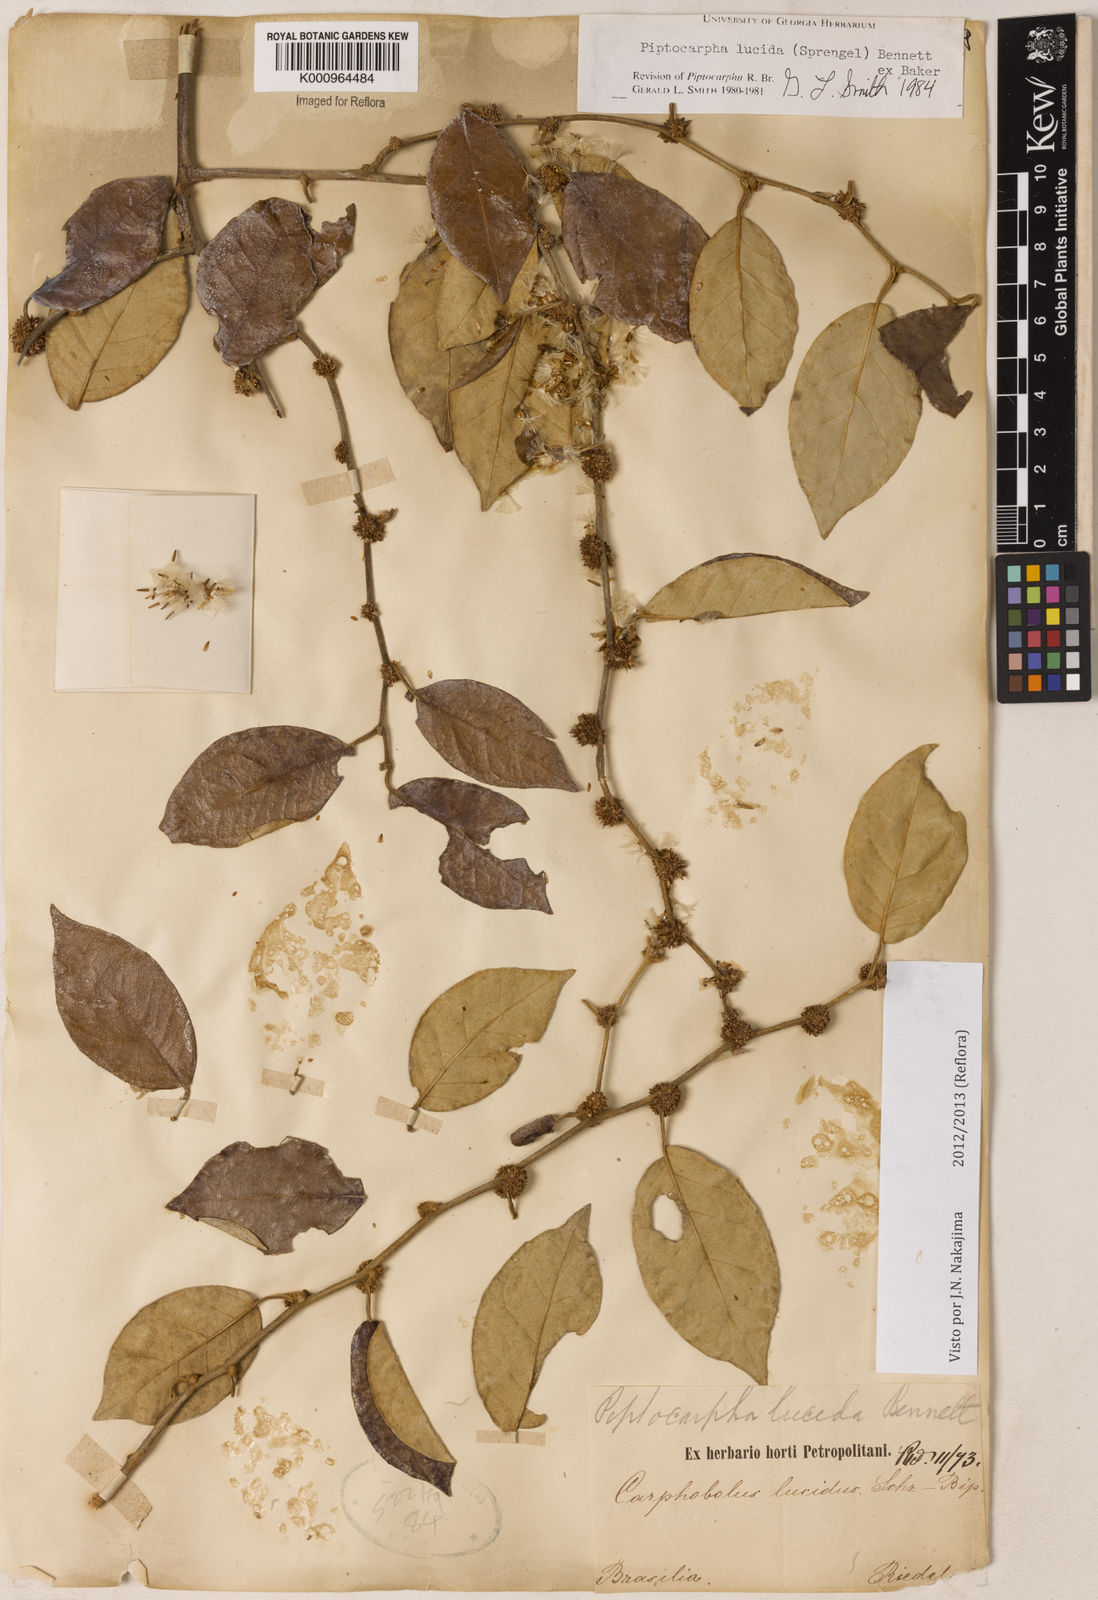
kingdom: Plantae
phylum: Tracheophyta
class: Magnoliopsida
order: Asterales
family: Asteraceae
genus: Piptocarpha
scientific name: Piptocarpha lucida
